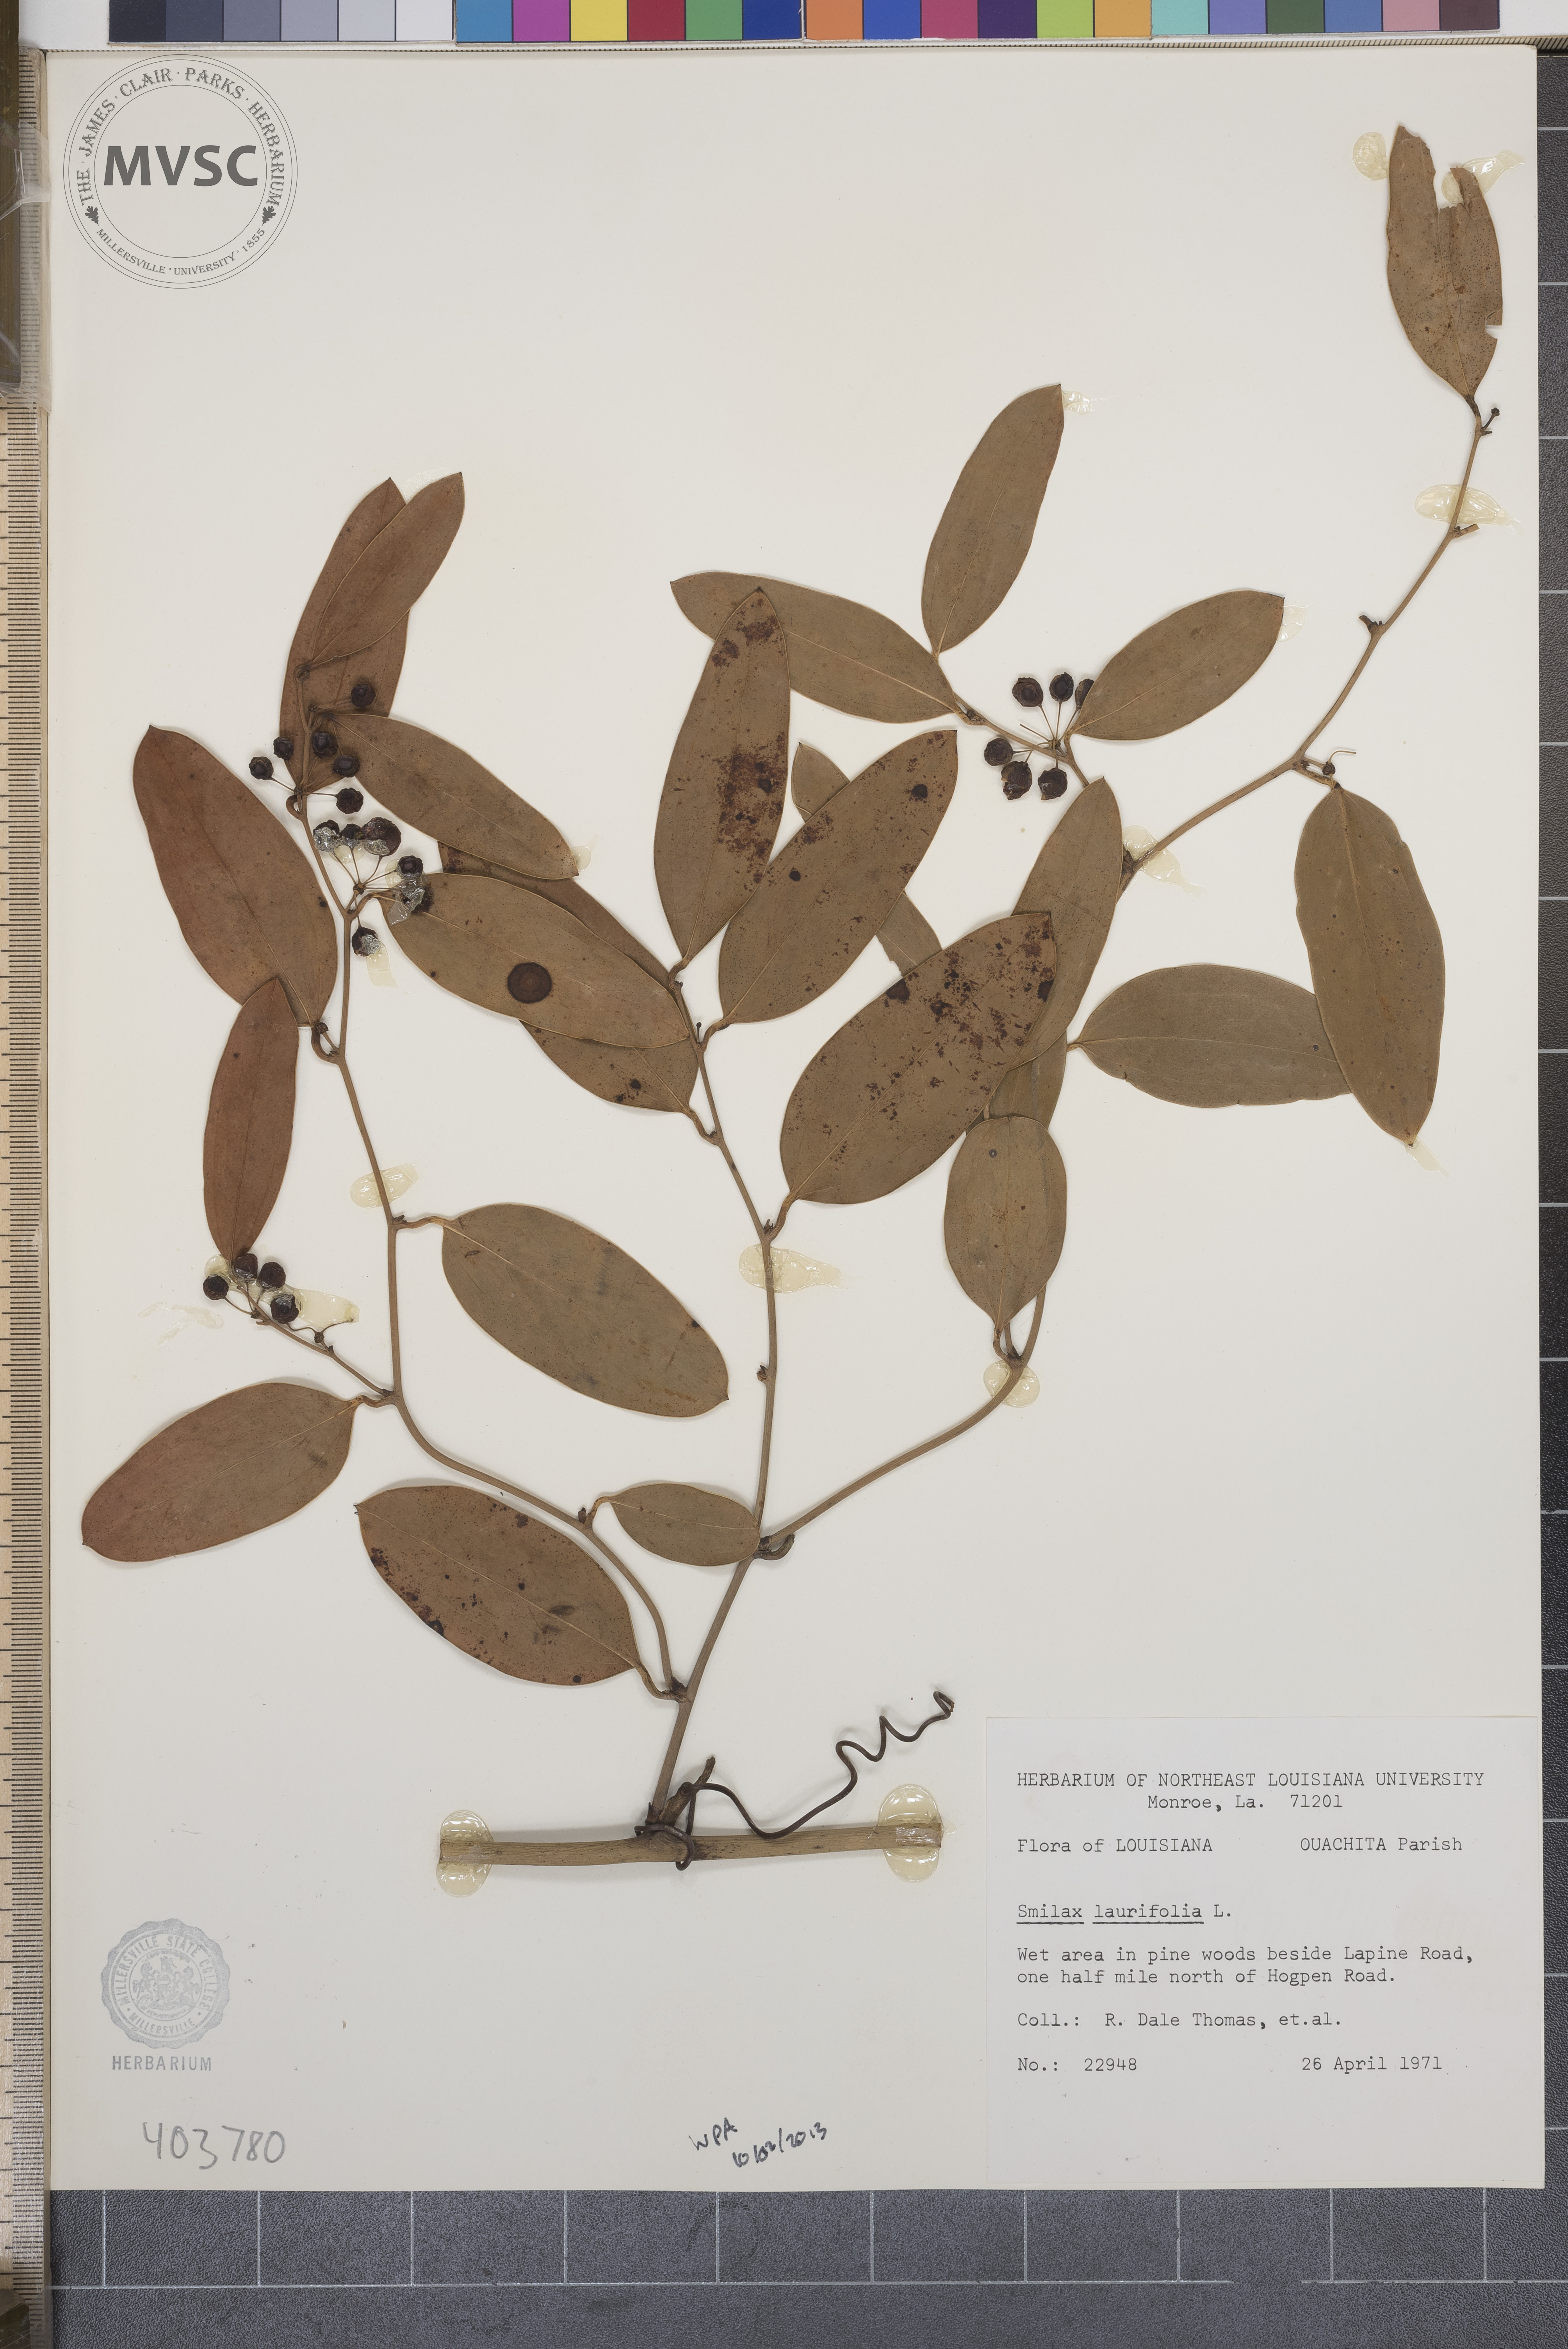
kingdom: Plantae
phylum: Tracheophyta
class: Liliopsida
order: Liliales
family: Smilacaceae
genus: Smilax
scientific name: Smilax laurifolia
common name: Bamboovine
